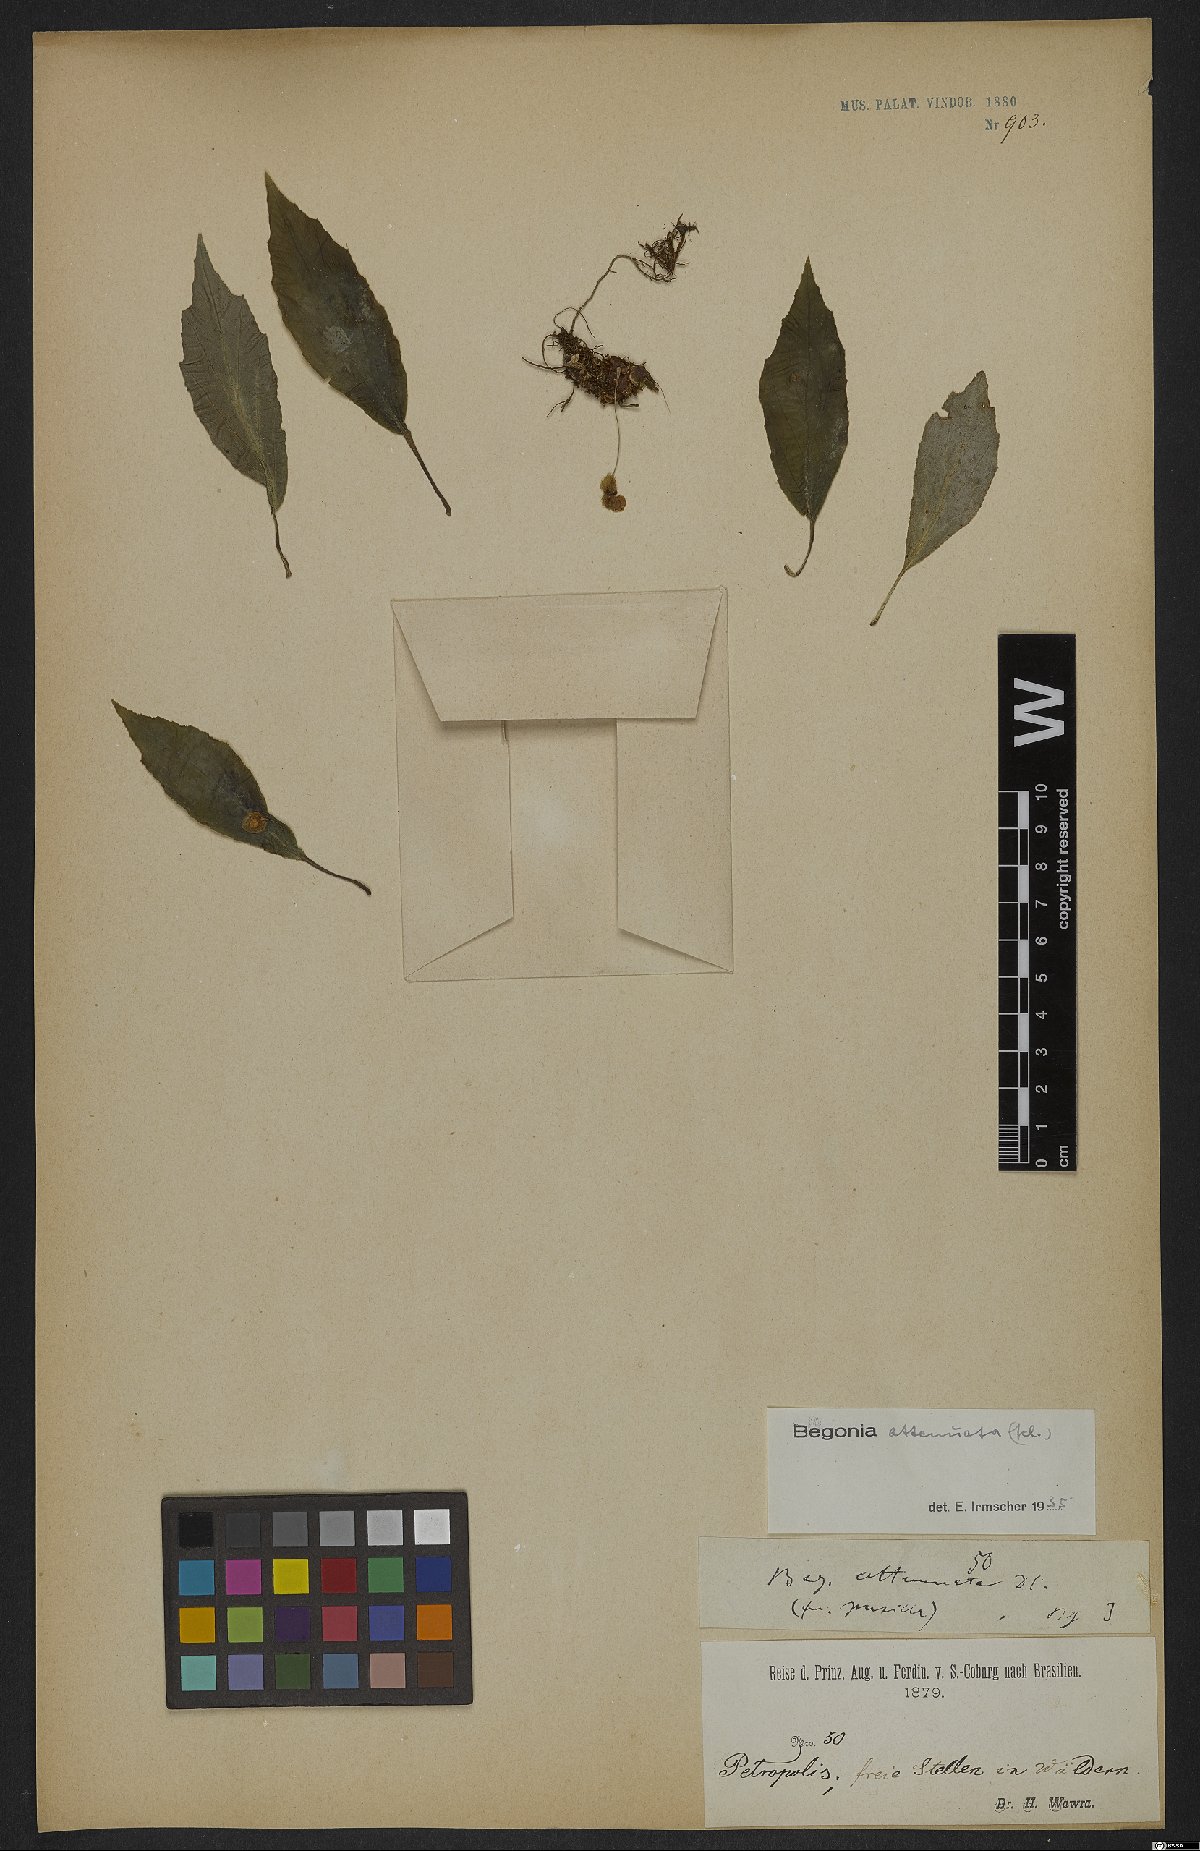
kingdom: Plantae
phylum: Tracheophyta
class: Magnoliopsida
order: Cucurbitales
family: Begoniaceae
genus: Begonia
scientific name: Begonia lanceolata
